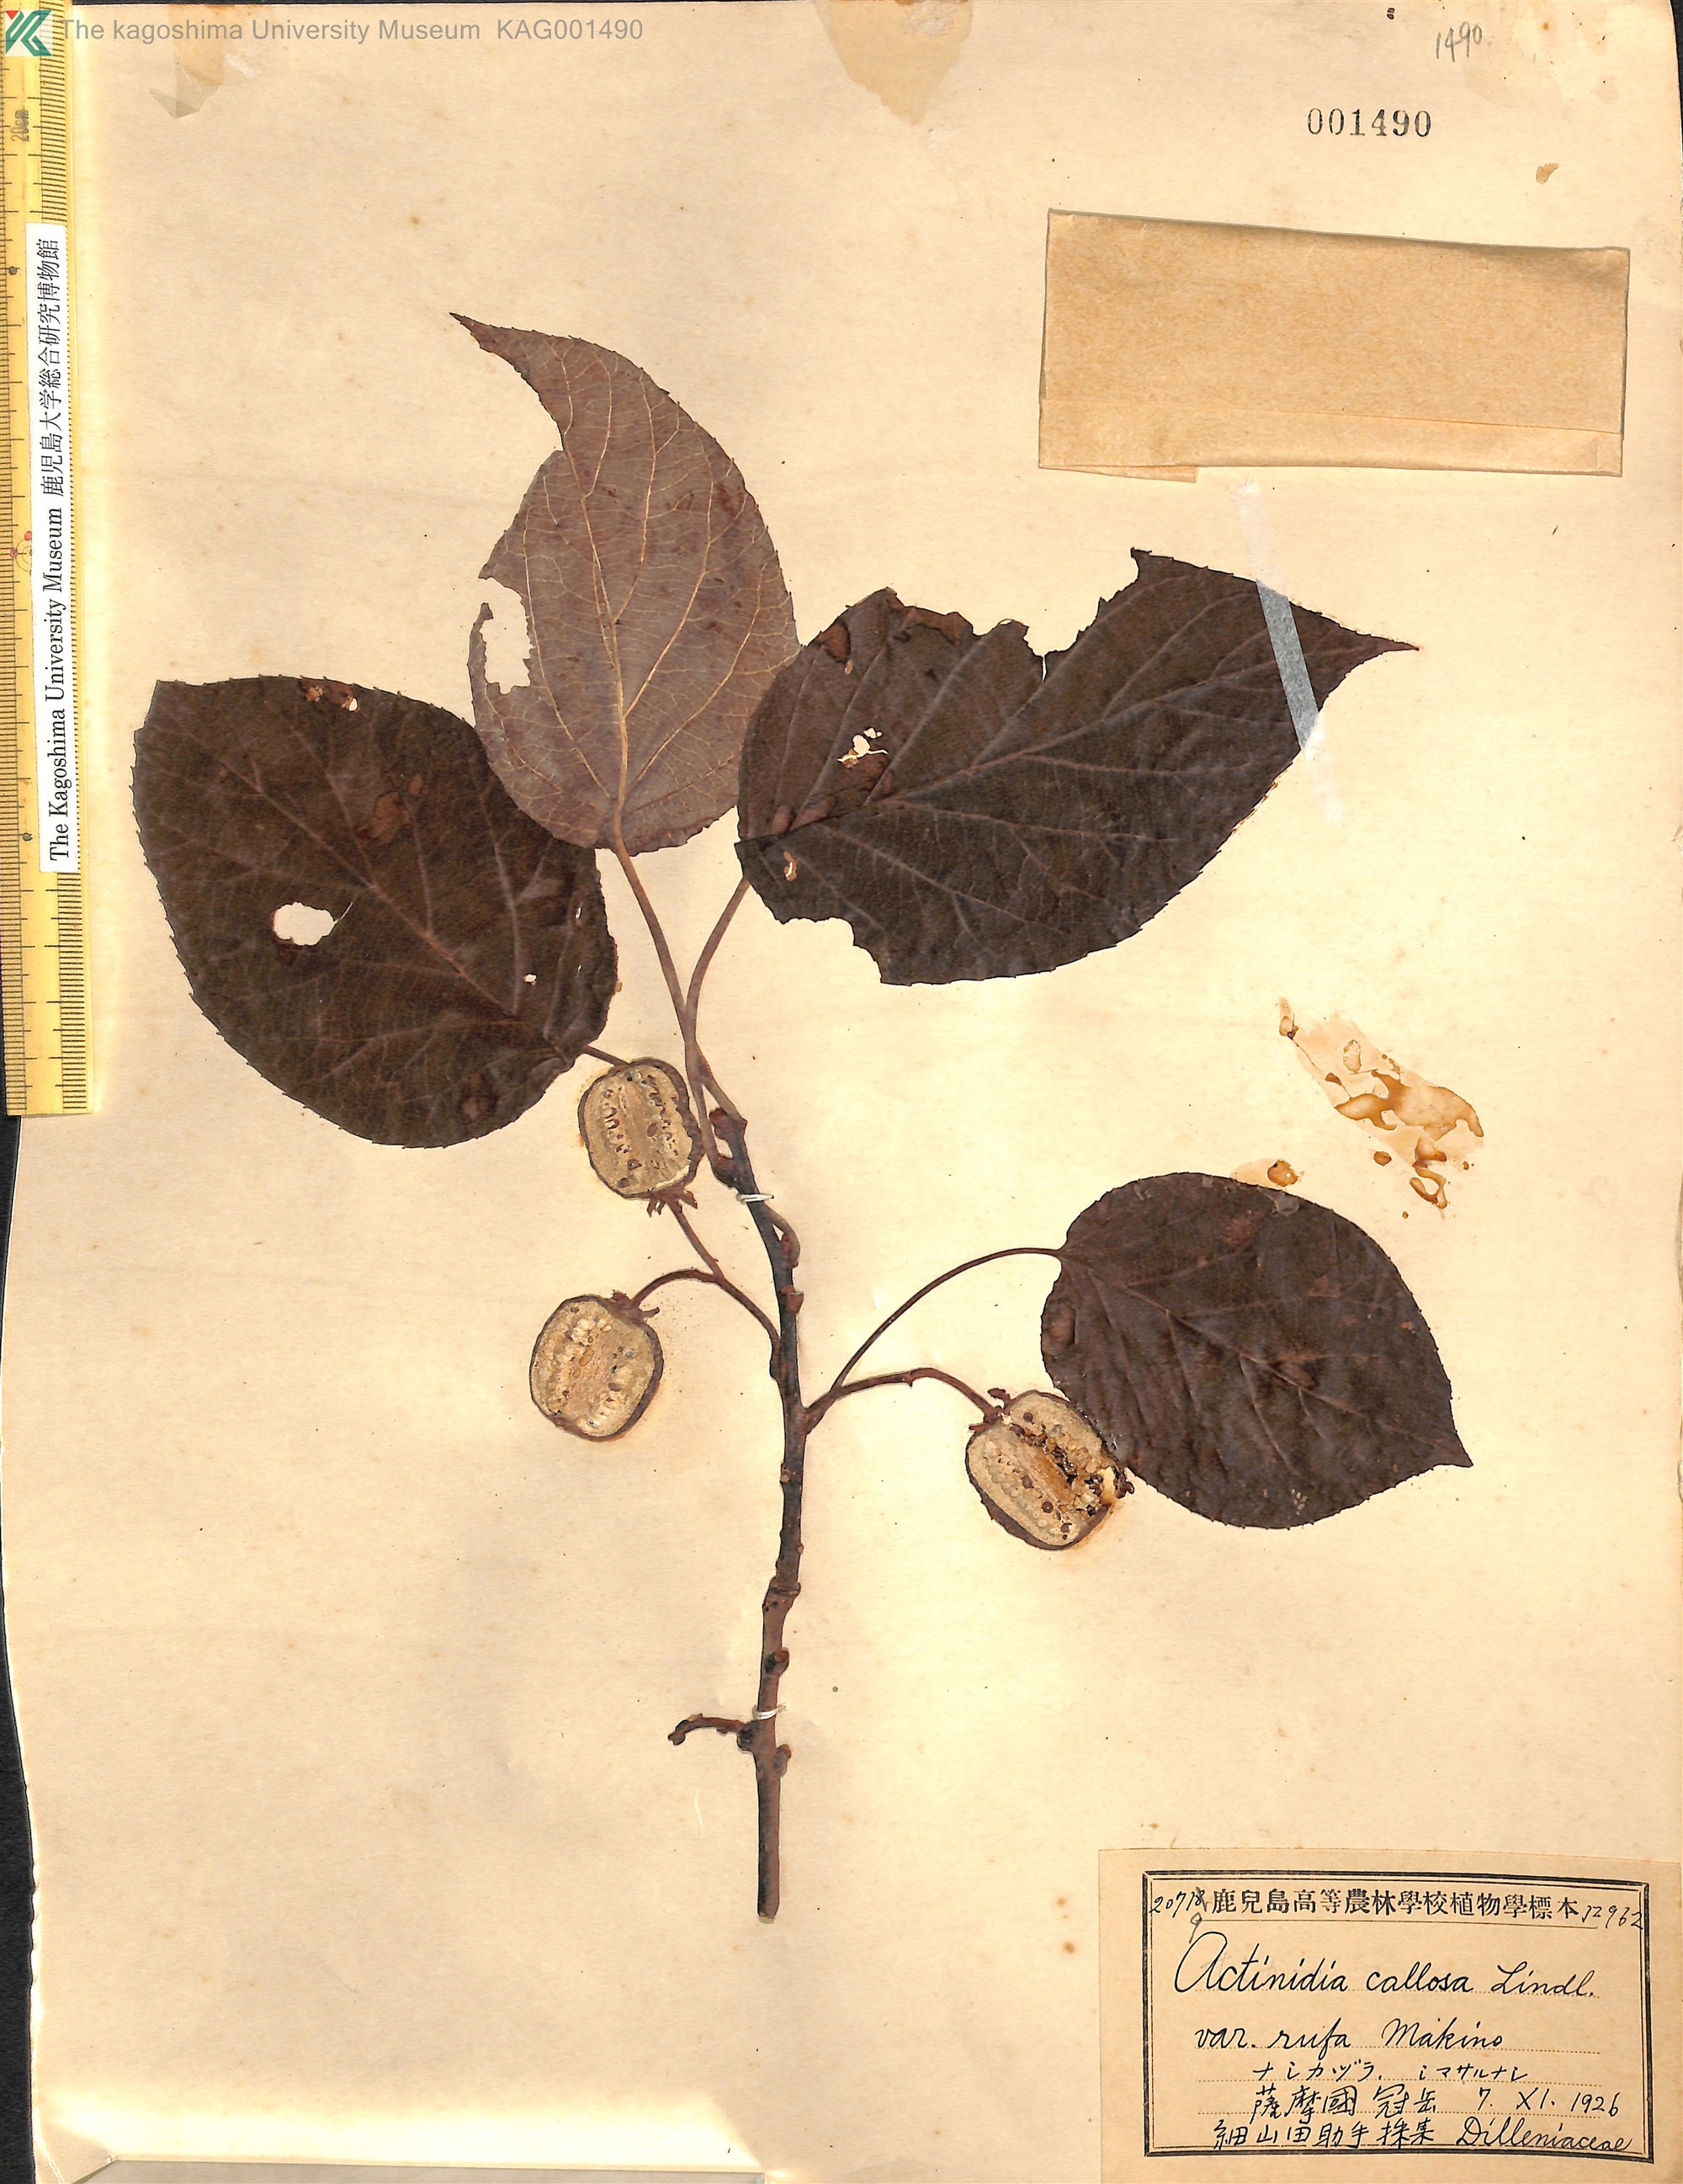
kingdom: Plantae
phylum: Tracheophyta
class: Magnoliopsida
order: Ericales
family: Actinidiaceae
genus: Actinidia
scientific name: Actinidia rufa
